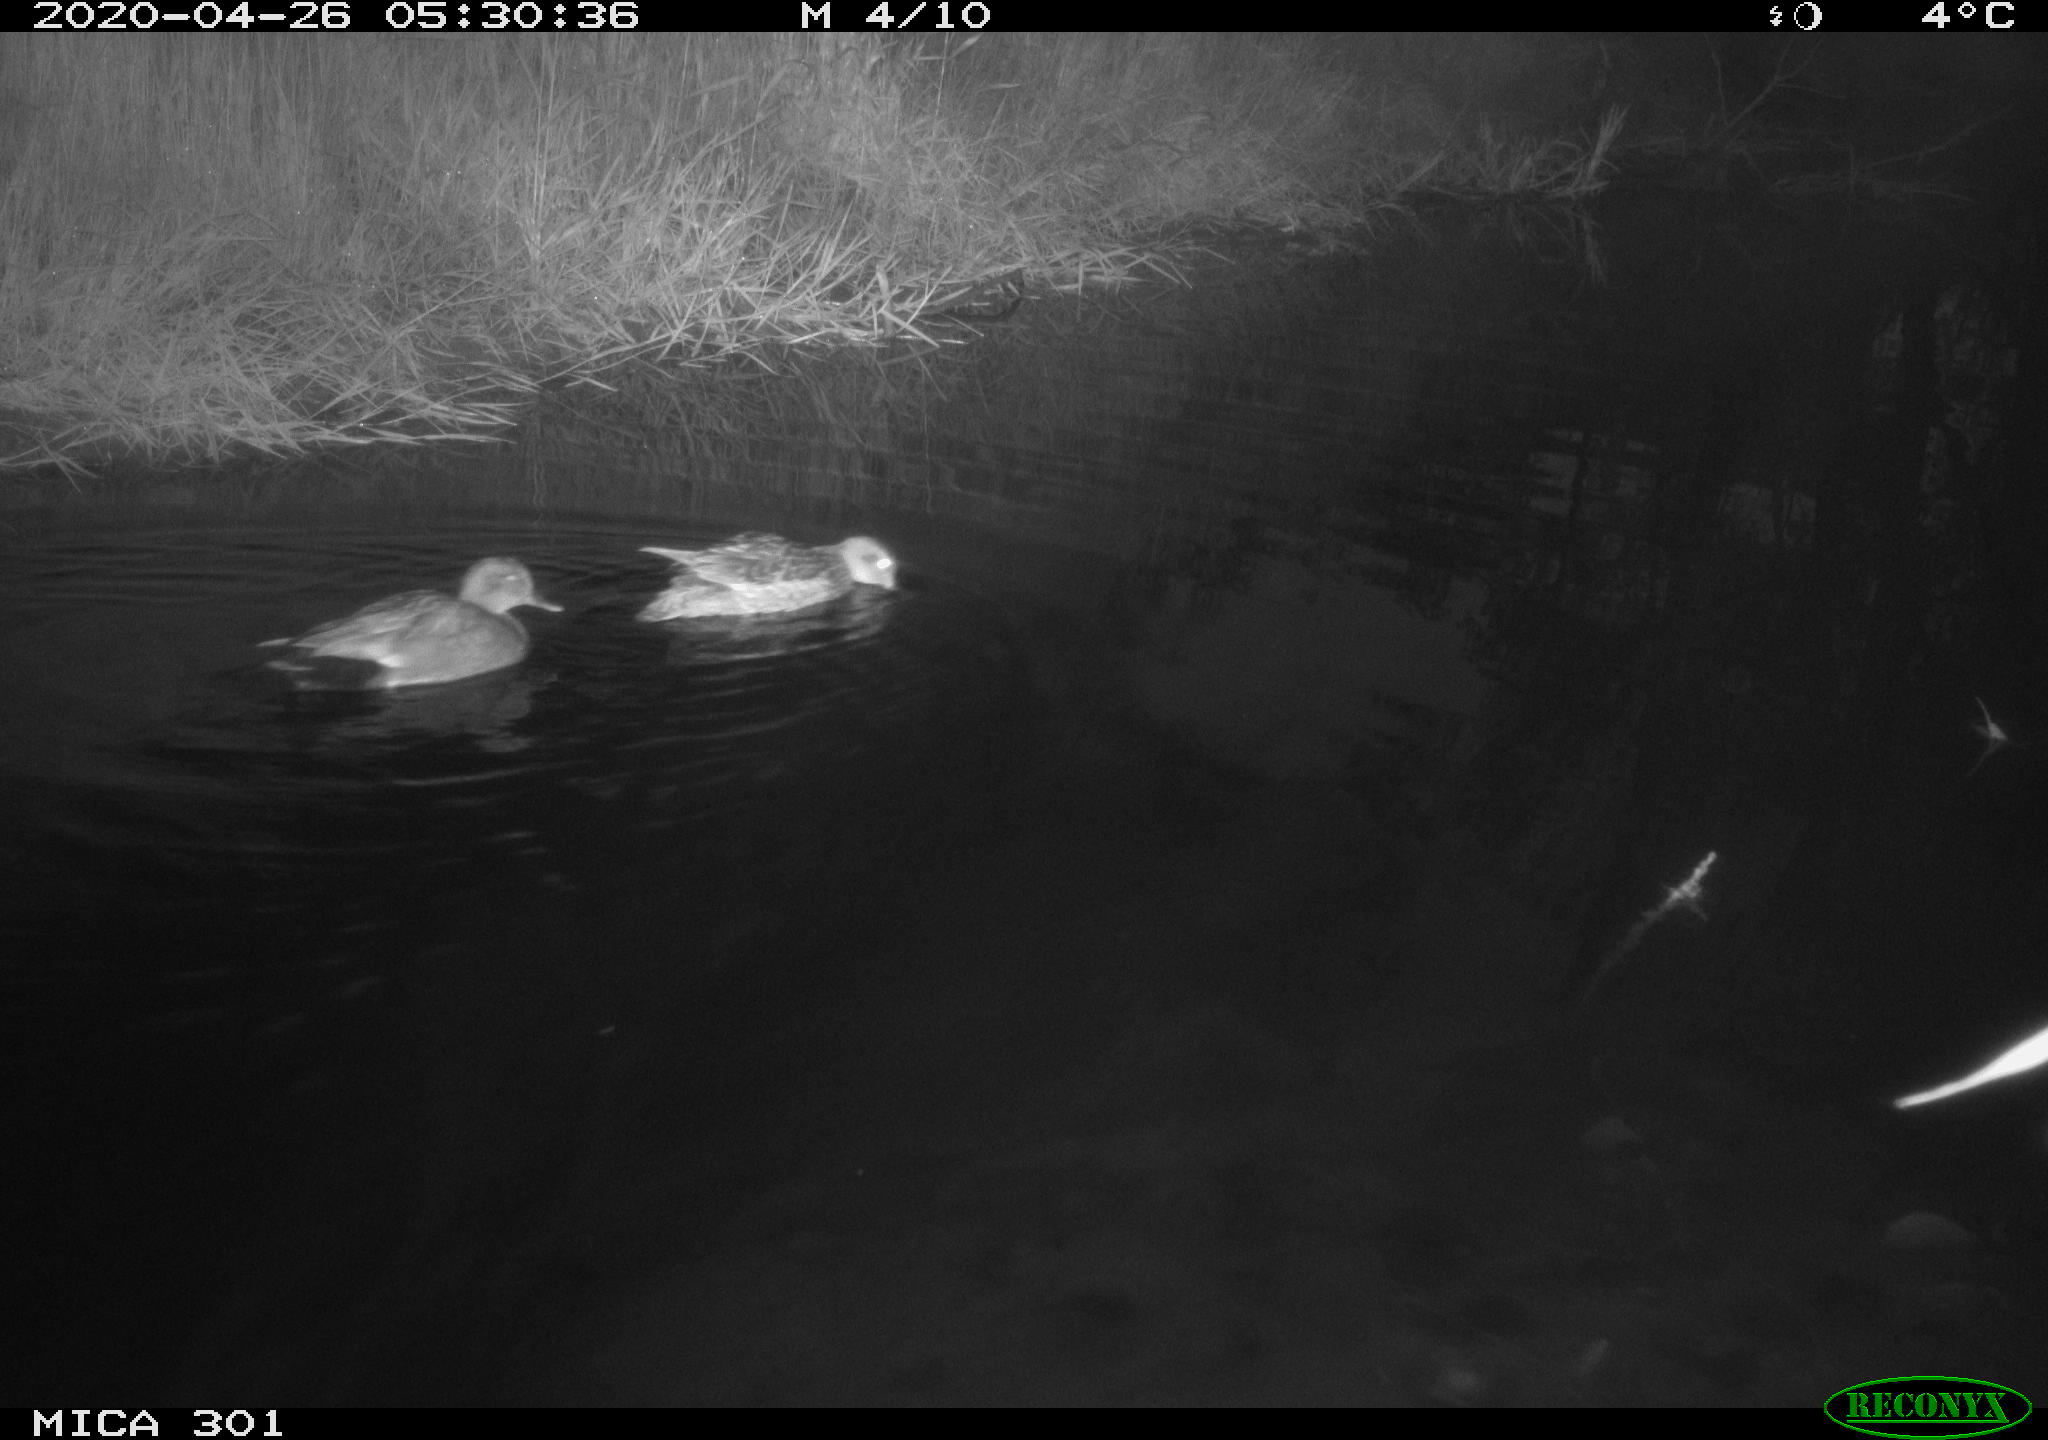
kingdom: Animalia
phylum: Chordata
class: Aves
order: Anseriformes
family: Anatidae
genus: Mareca
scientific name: Mareca strepera
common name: Gadwall
